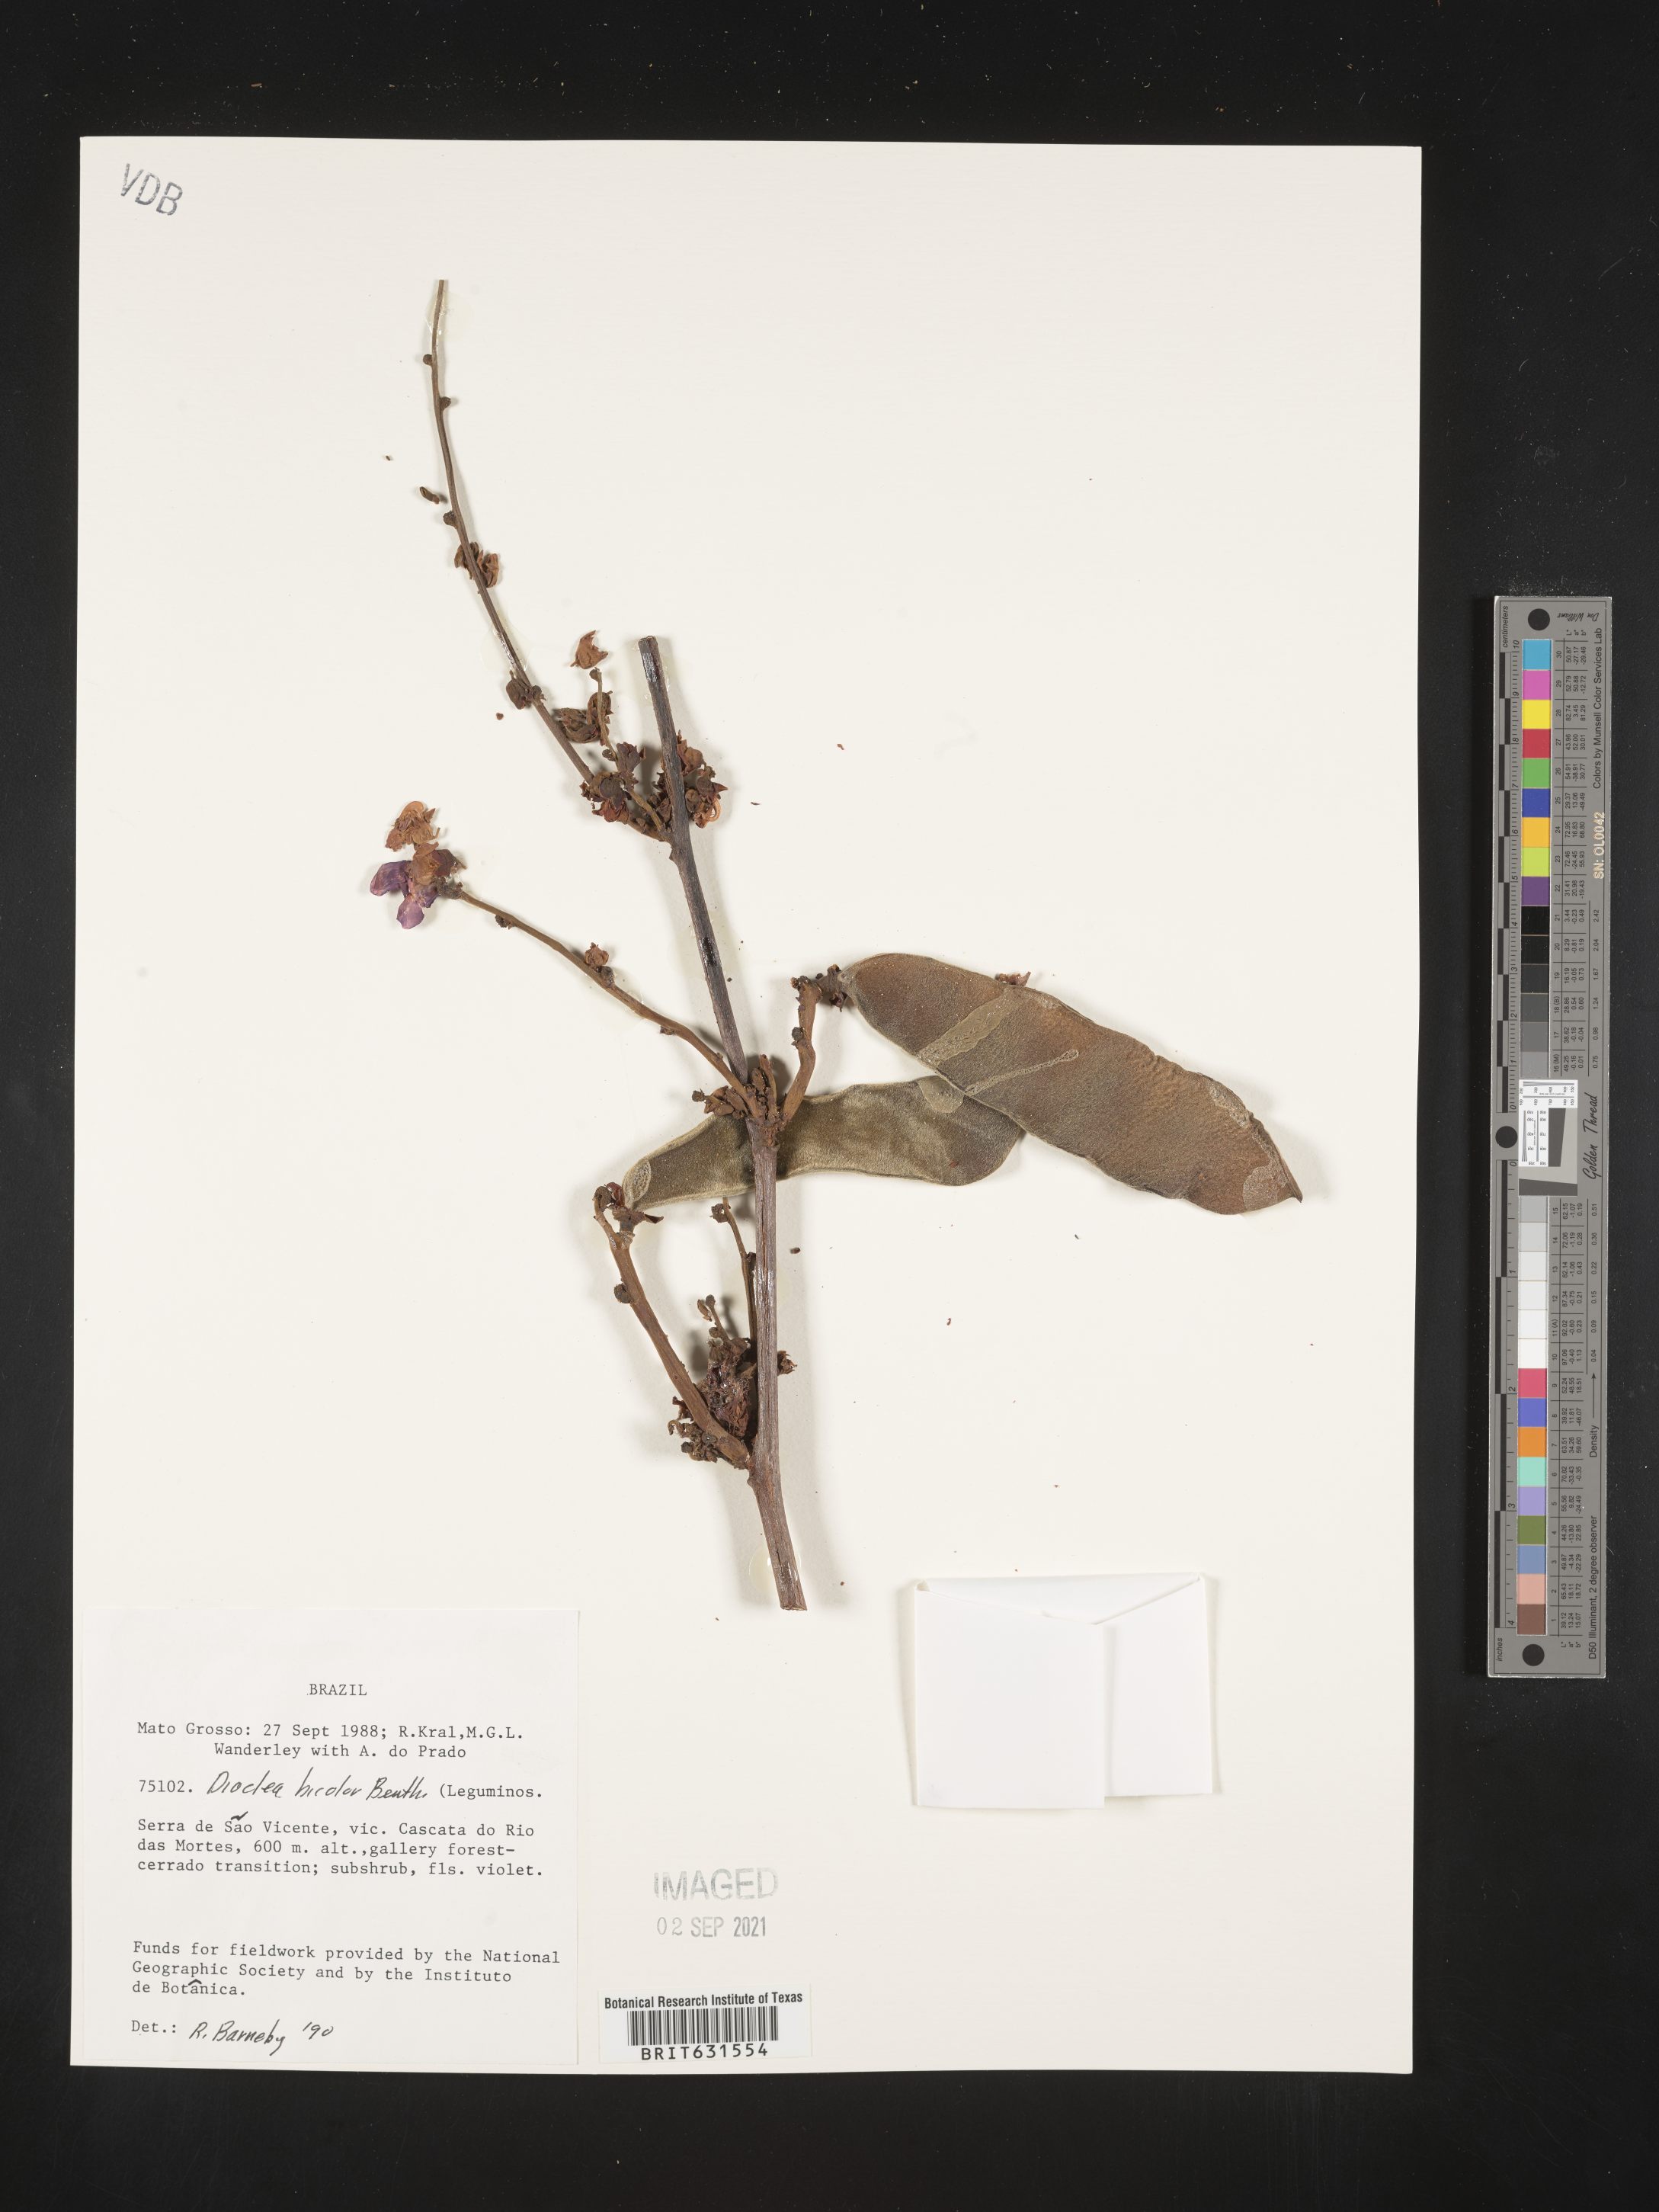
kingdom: Plantae
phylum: Tracheophyta
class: Magnoliopsida
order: Fabales
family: Fabaceae
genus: Macropsychanthus
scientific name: Macropsychanthus bicolor
